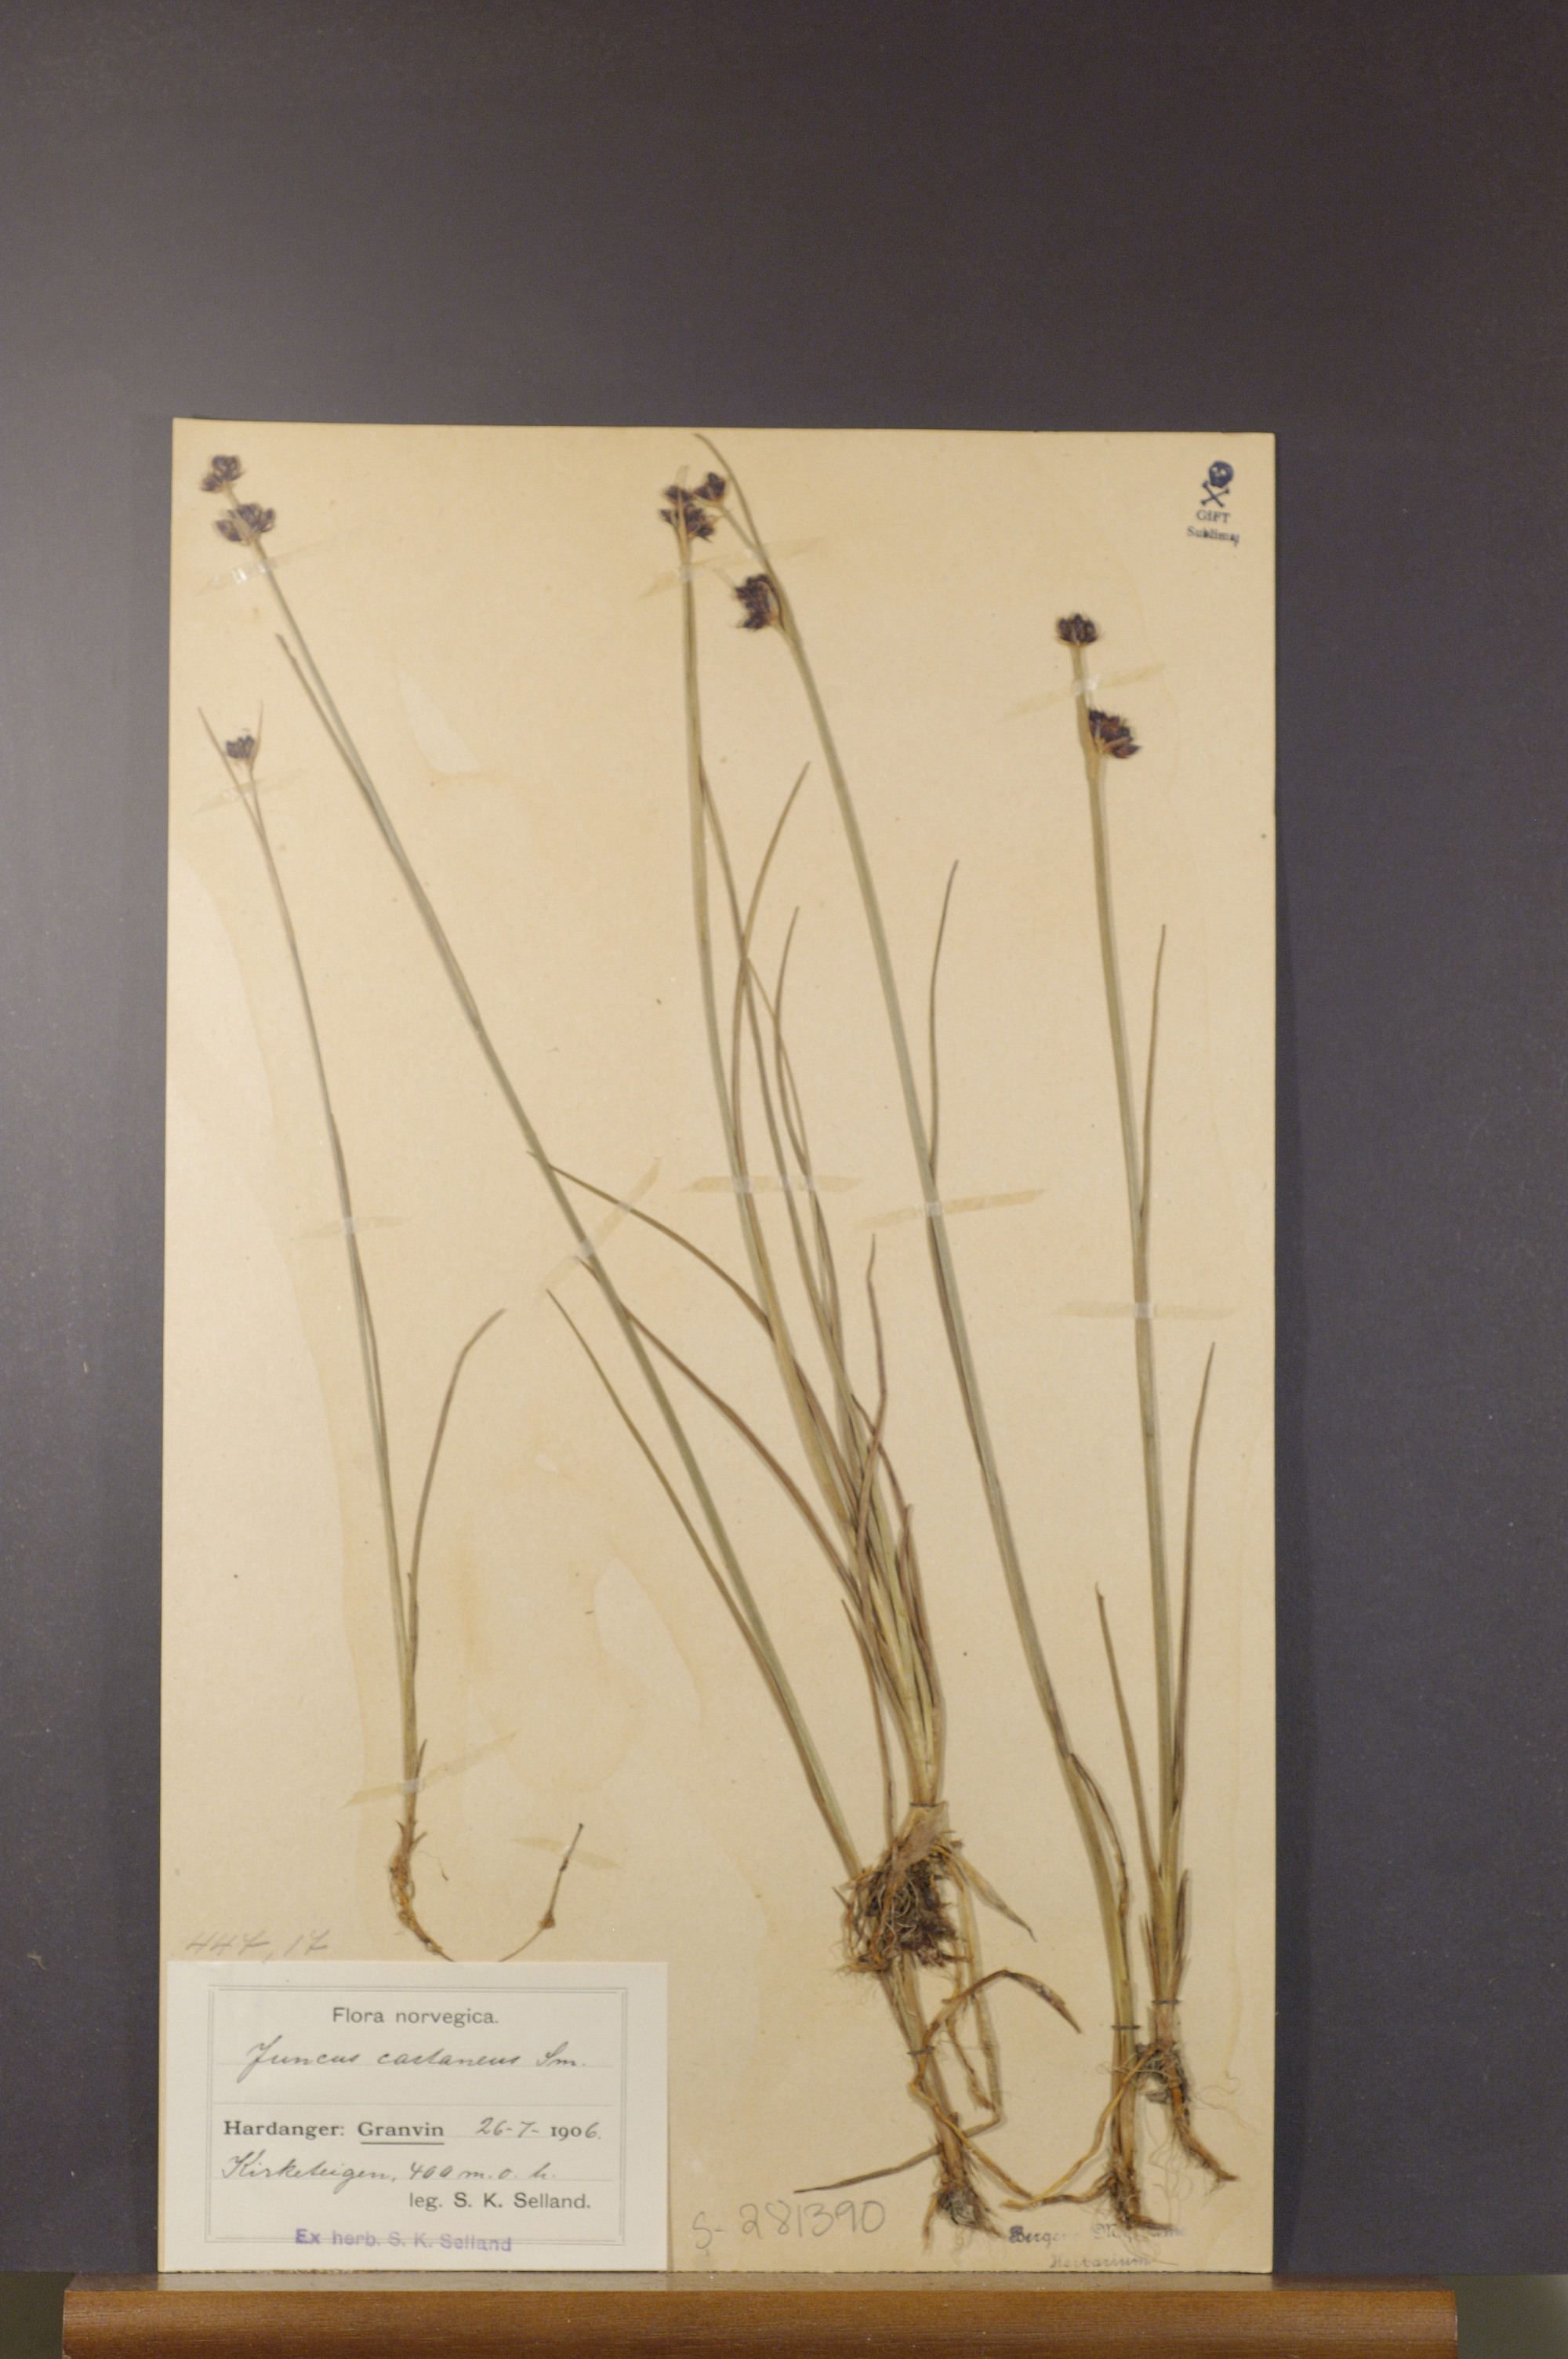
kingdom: Plantae
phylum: Tracheophyta
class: Liliopsida
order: Poales
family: Juncaceae
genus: Juncus
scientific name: Juncus castaneus
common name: Chestnut rush
